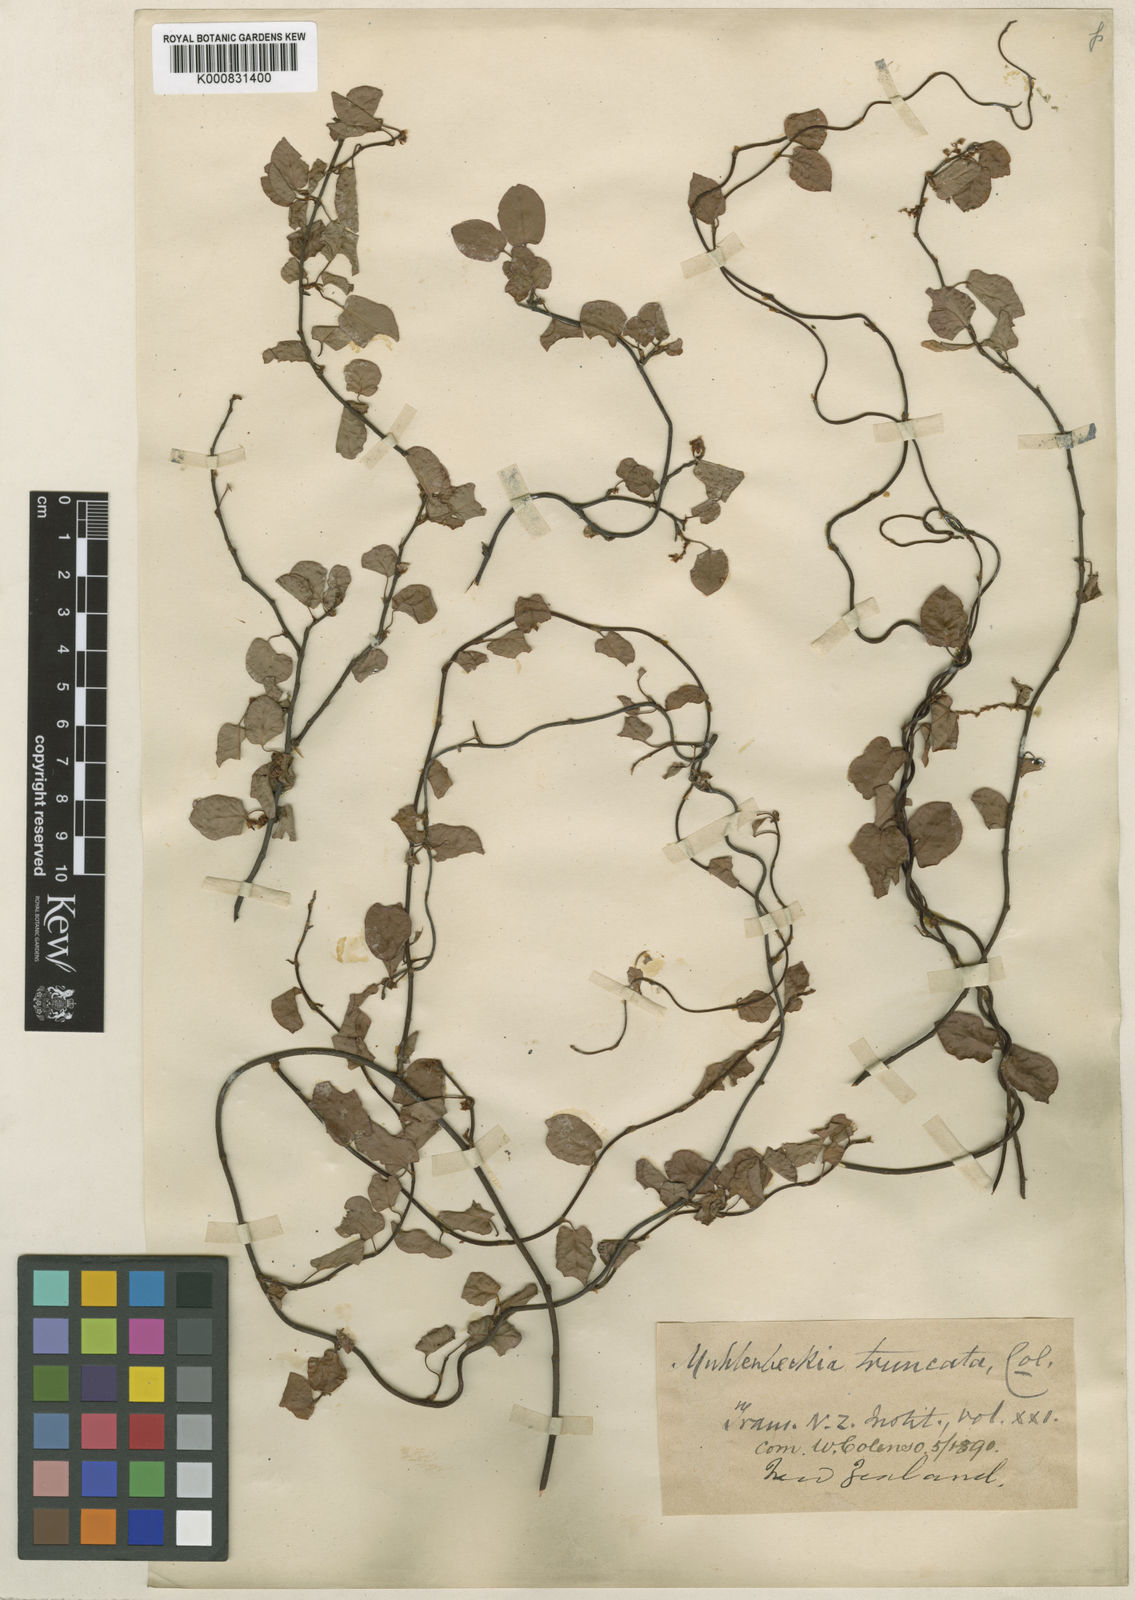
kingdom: Plantae
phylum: Tracheophyta
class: Magnoliopsida
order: Caryophyllales
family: Polygonaceae
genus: Muehlenbeckia
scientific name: Muehlenbeckia complexa
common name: Wireplant
